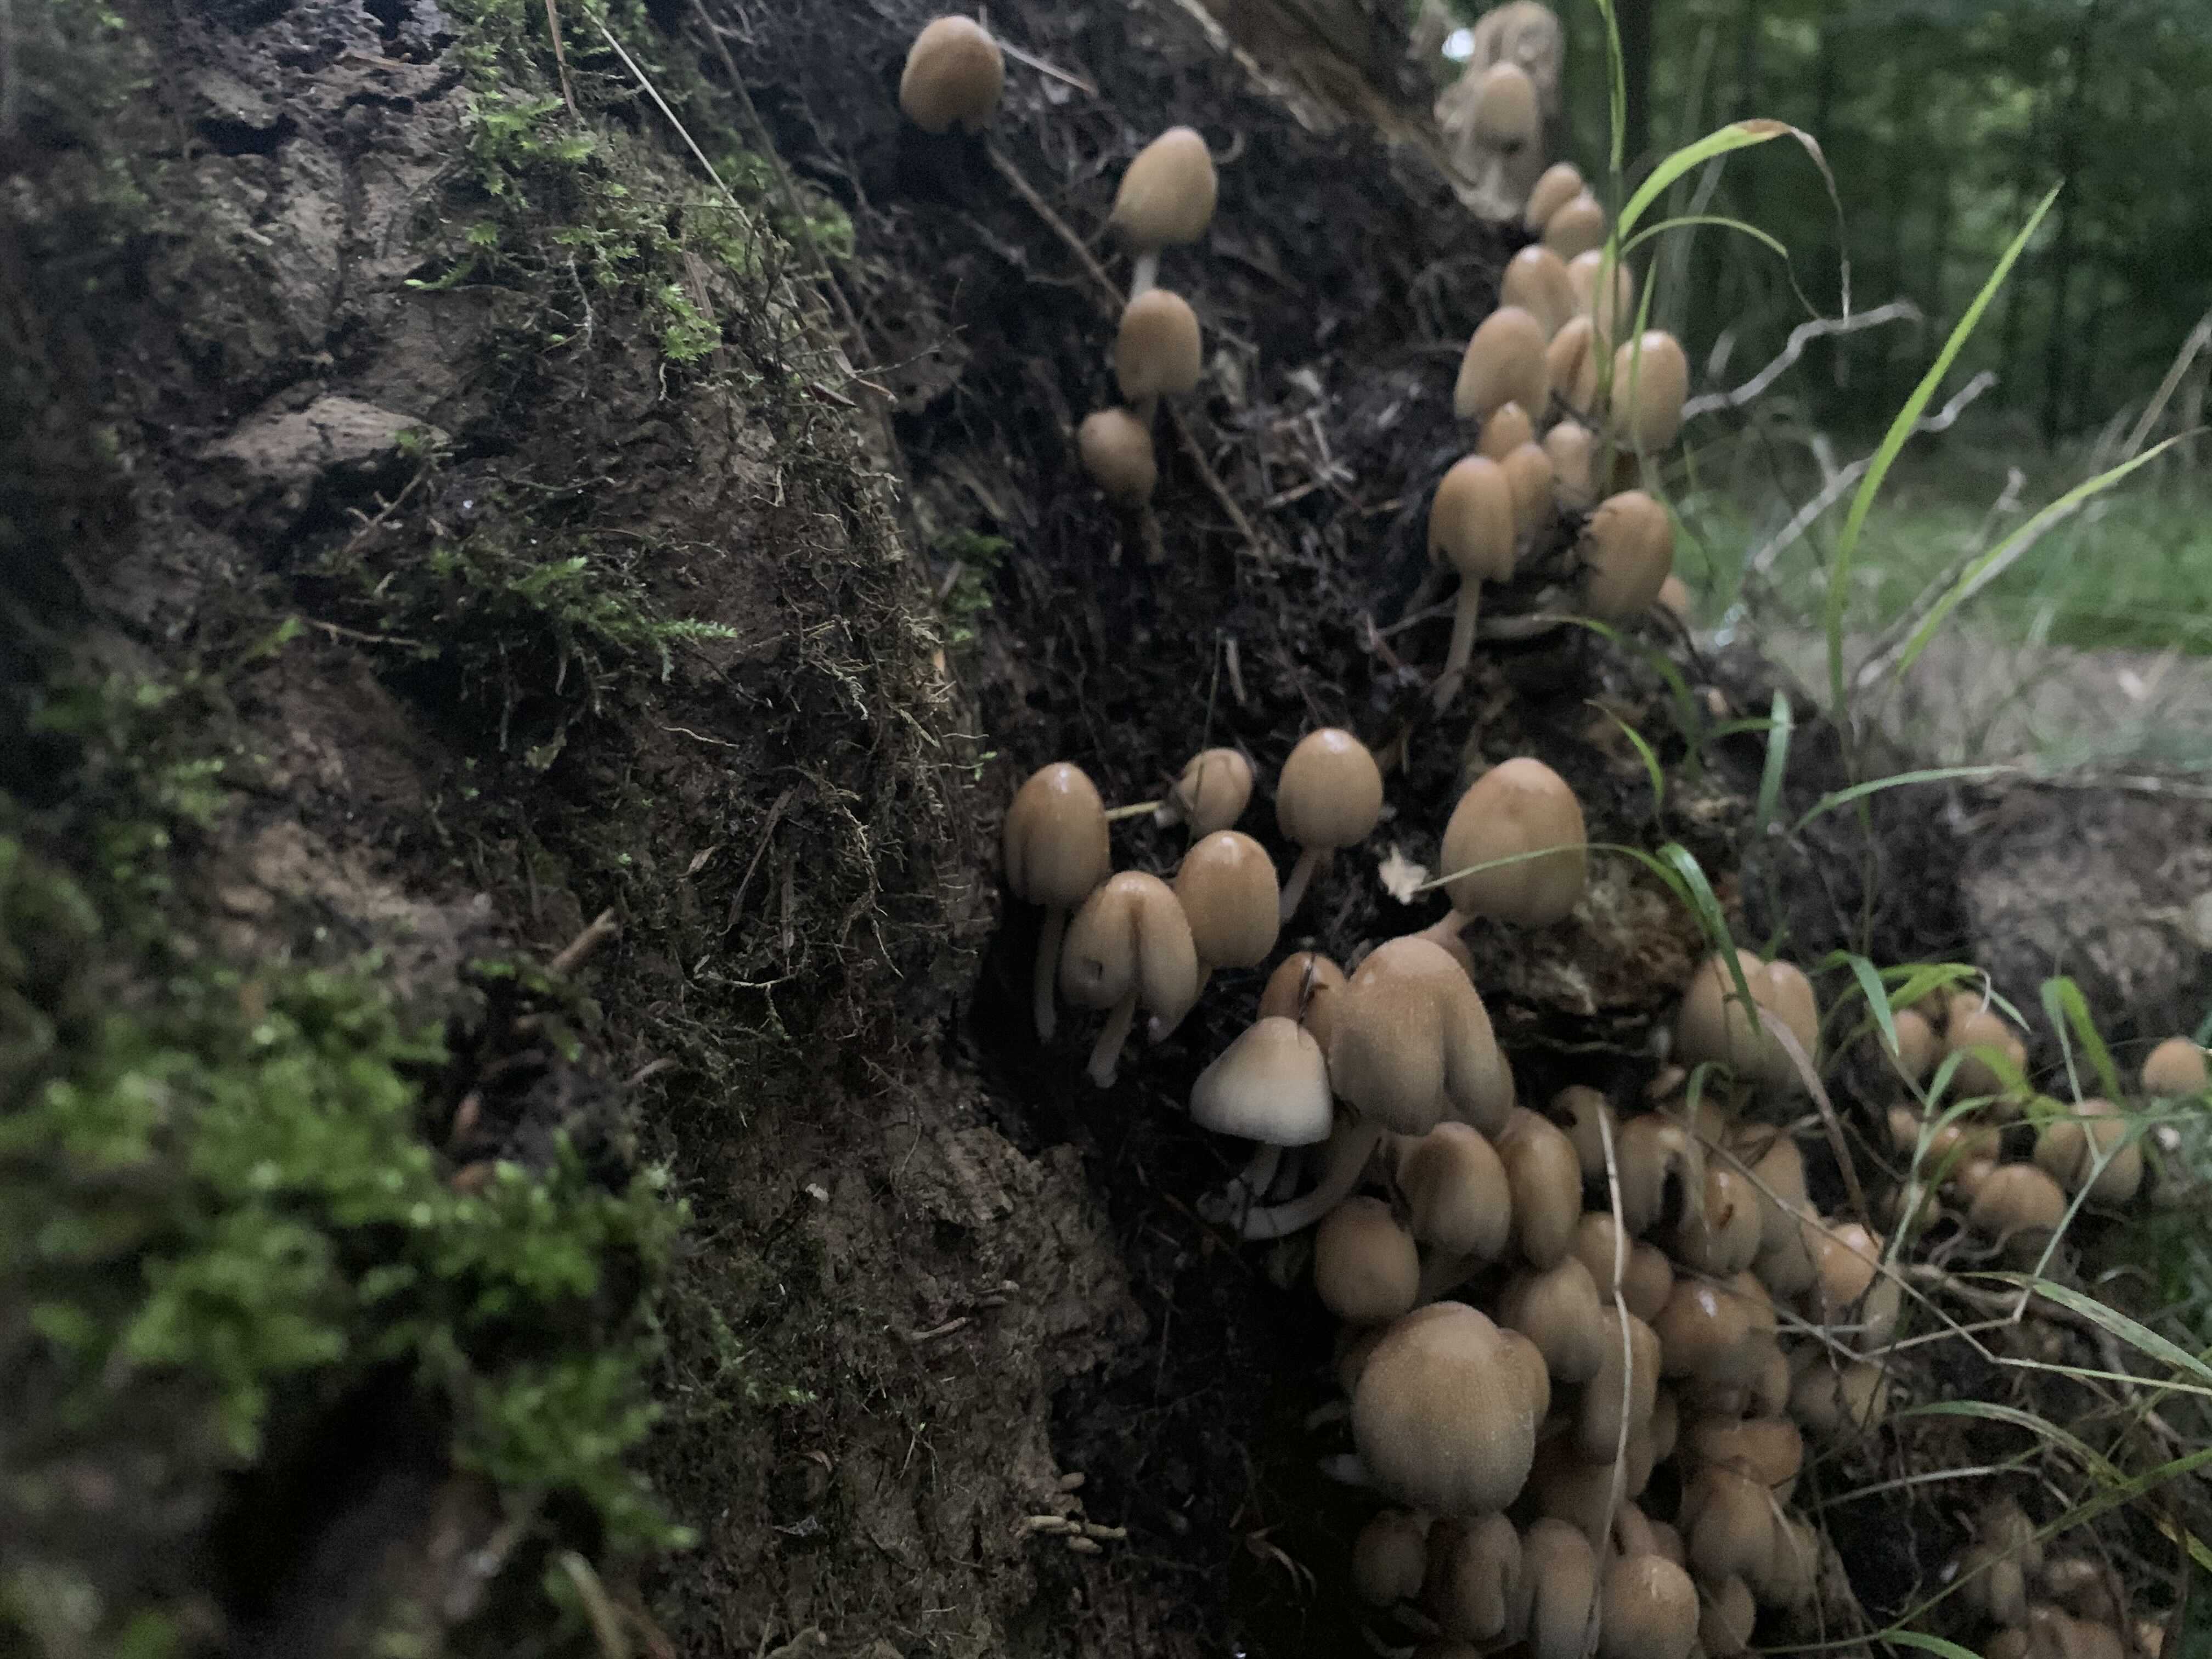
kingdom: Fungi
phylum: Basidiomycota
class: Agaricomycetes
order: Agaricales
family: Psathyrellaceae
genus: Coprinellus
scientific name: Coprinellus micaceus
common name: glimmer-blækhat
